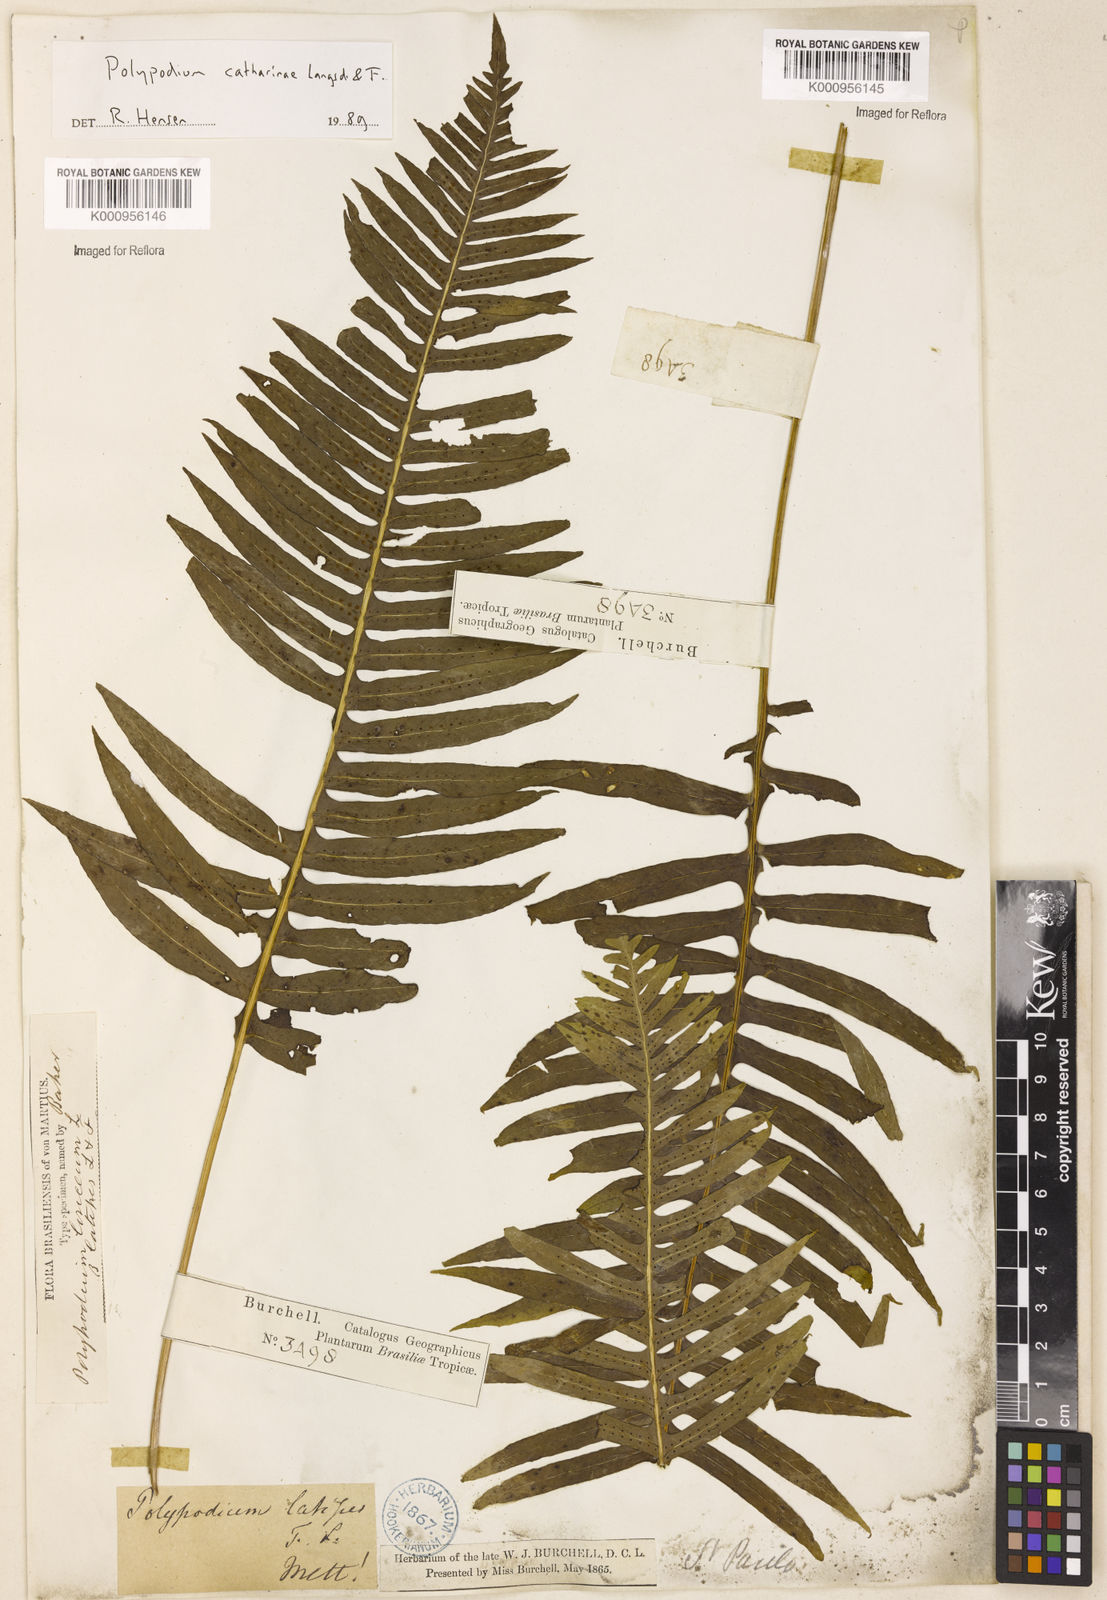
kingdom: Plantae
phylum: Tracheophyta
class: Polypodiopsida
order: Polypodiales
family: Polypodiaceae
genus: Serpocaulon
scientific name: Serpocaulon catharinae
